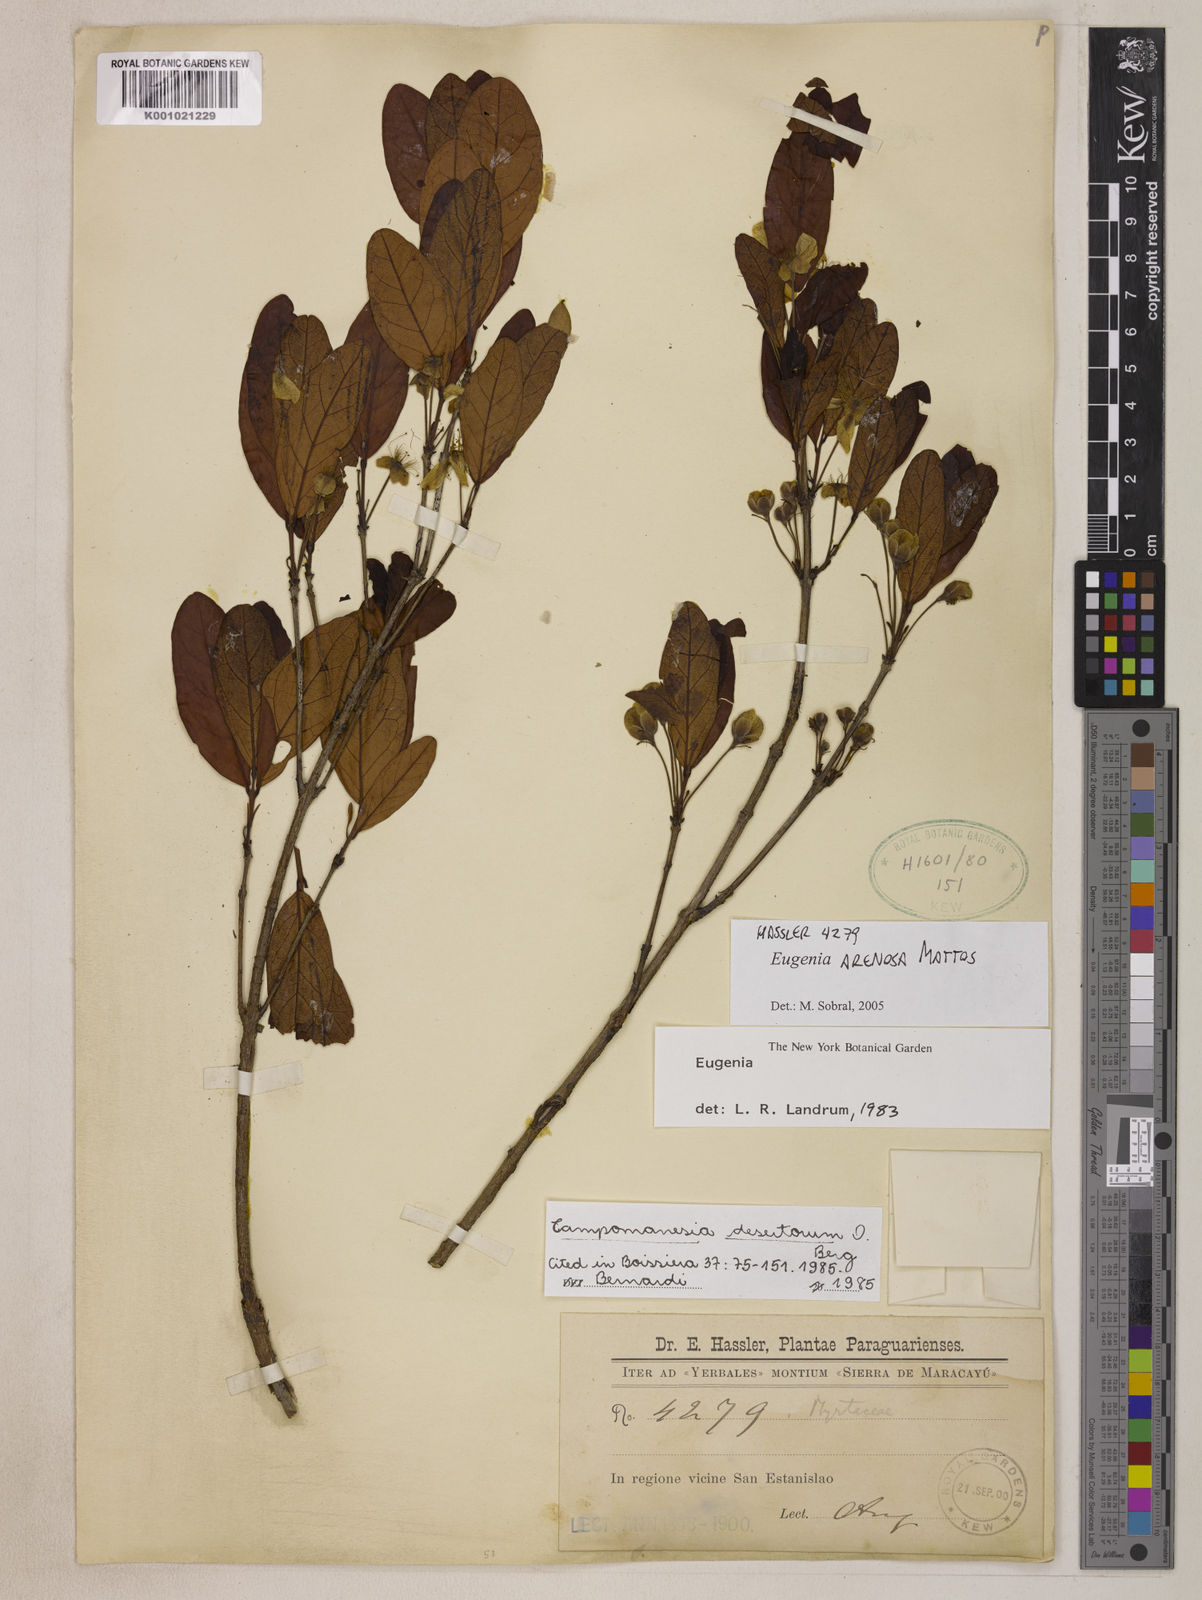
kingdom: Plantae
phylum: Tracheophyta
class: Magnoliopsida
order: Myrtales
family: Myrtaceae
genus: Eugenia
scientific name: Eugenia arenosa
